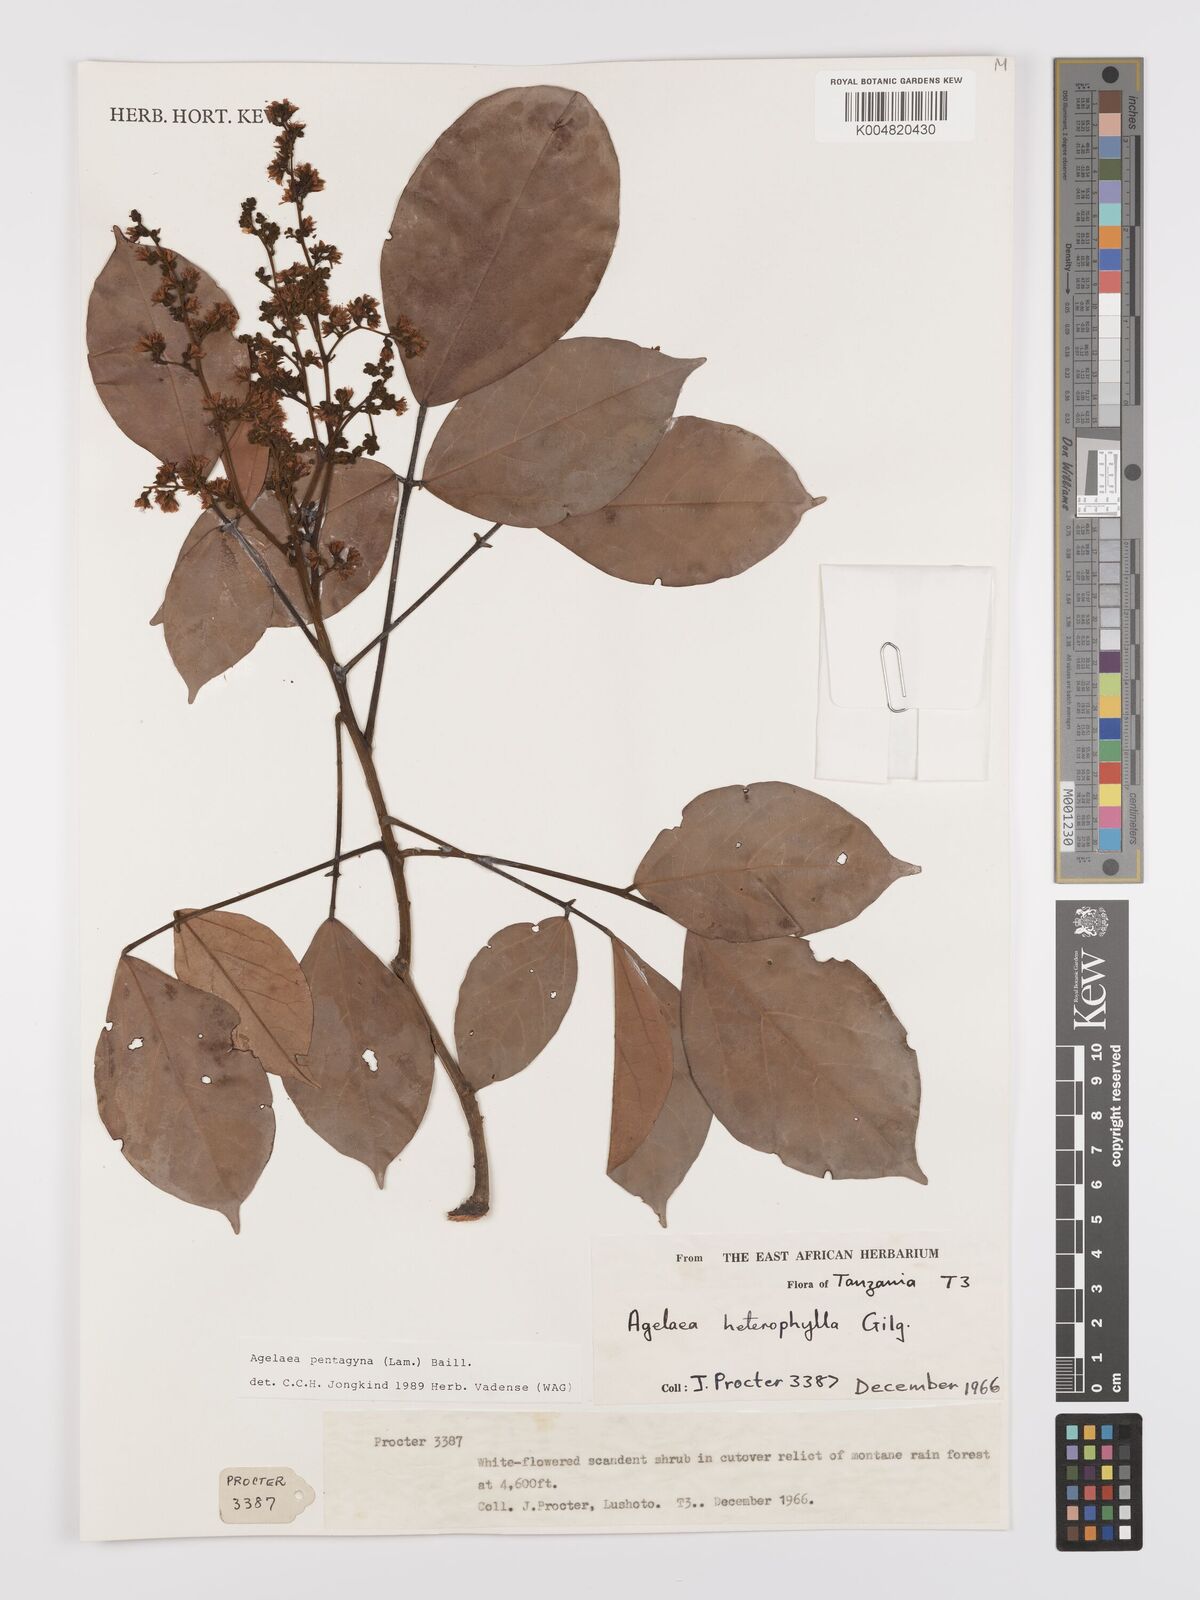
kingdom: Plantae
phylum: Tracheophyta
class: Magnoliopsida
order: Oxalidales
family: Connaraceae
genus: Agelaea
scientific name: Agelaea pentagyna
